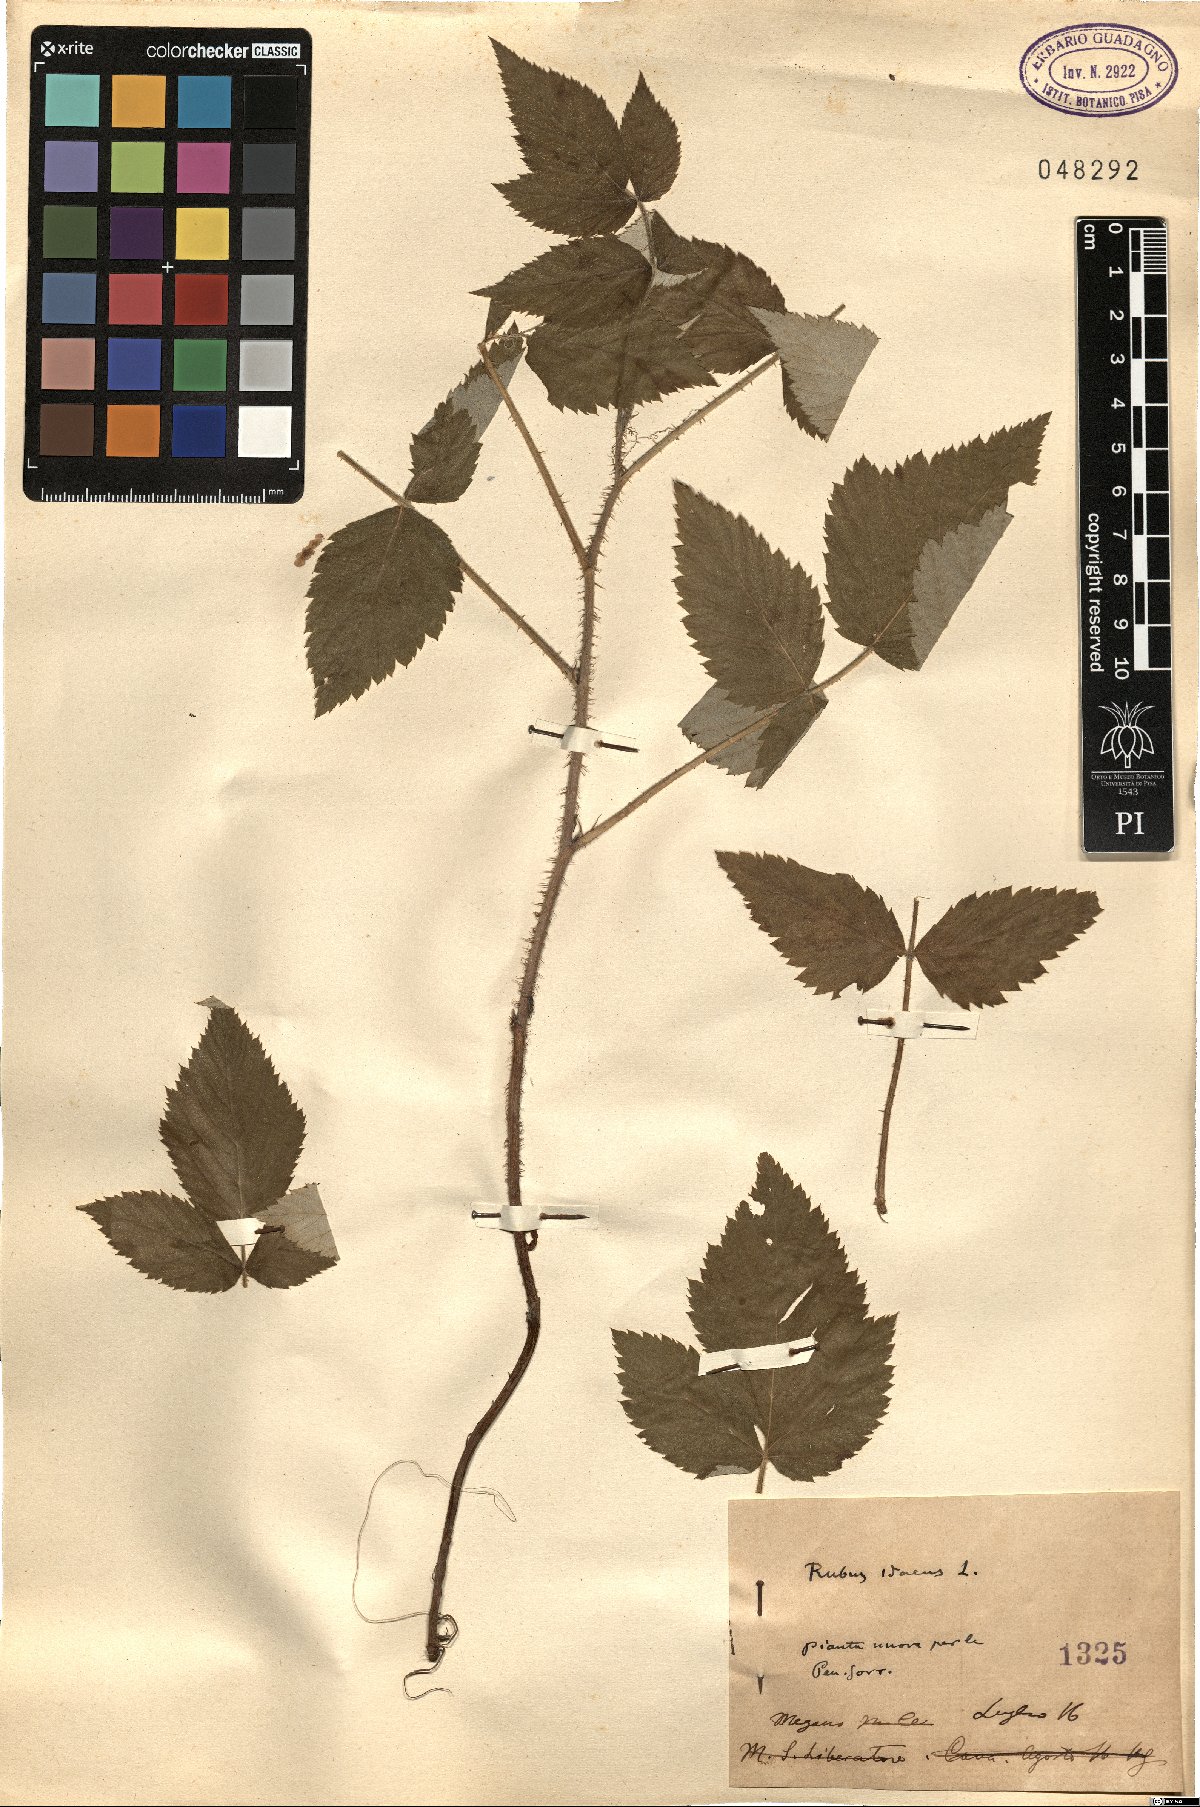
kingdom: Plantae
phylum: Tracheophyta
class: Magnoliopsida
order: Rosales
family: Rosaceae
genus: Rubus
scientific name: Rubus idaeus
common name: Raspberry
